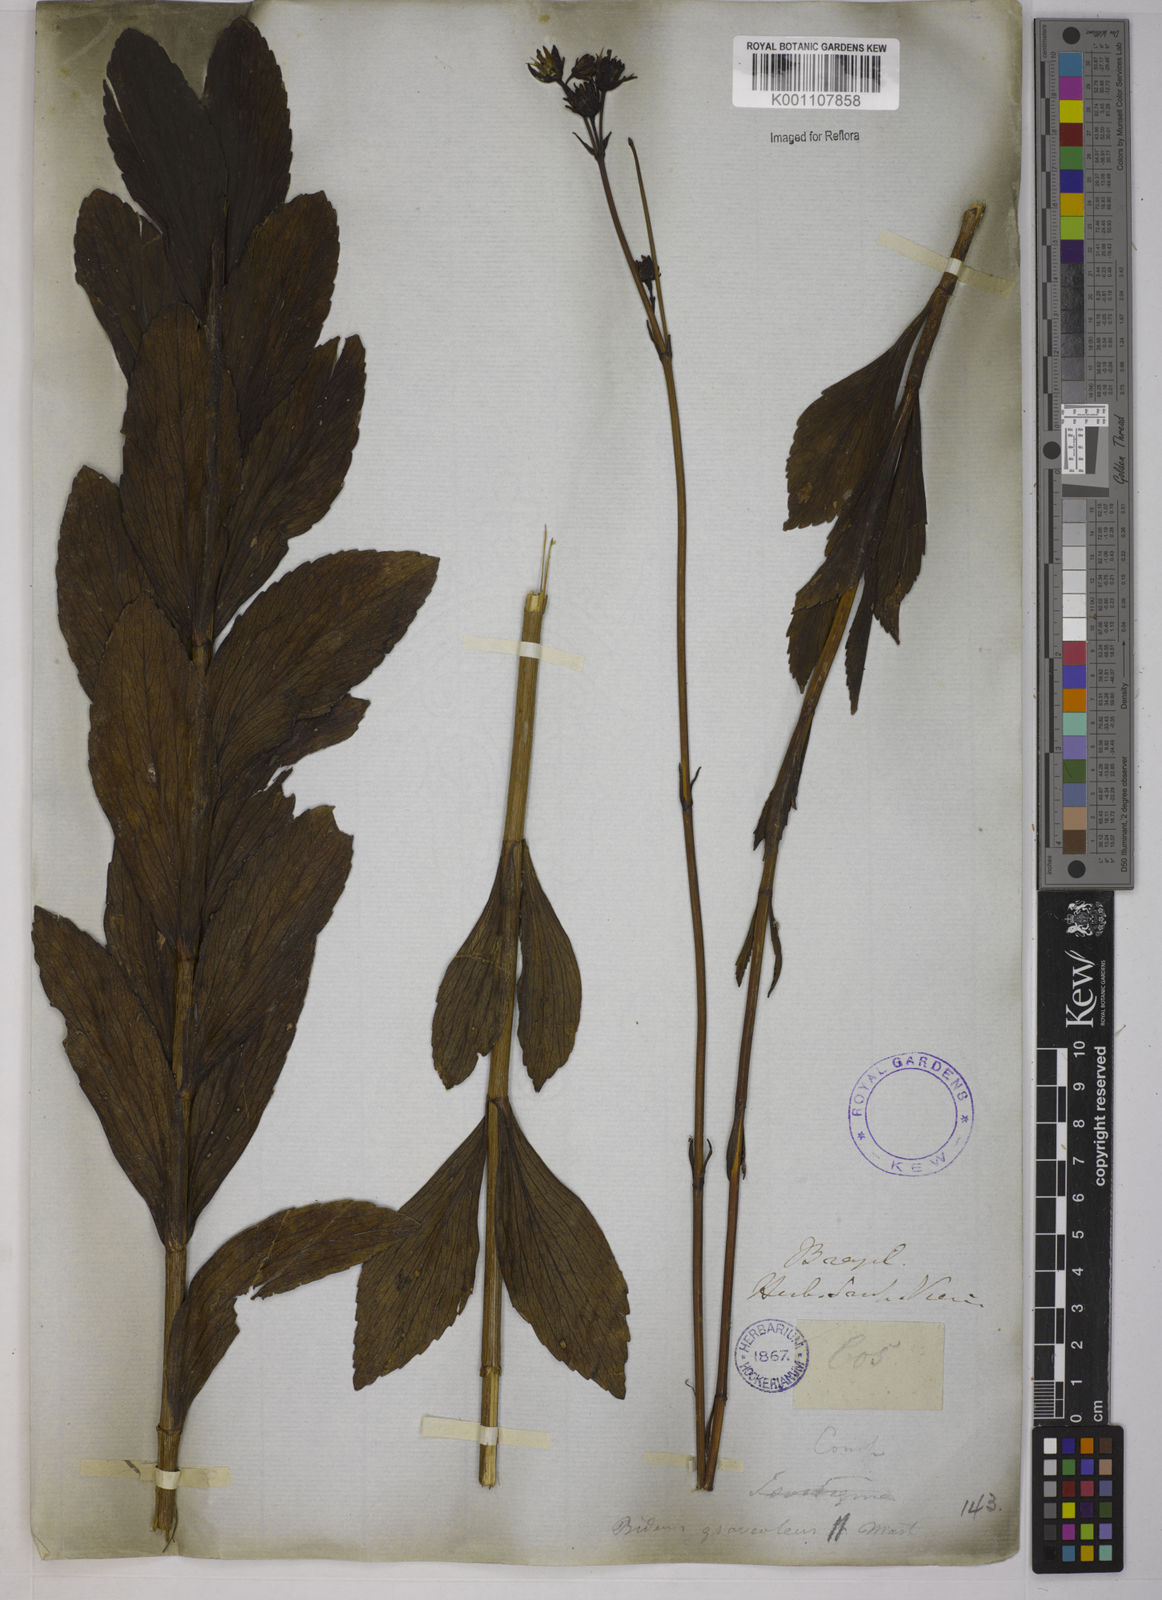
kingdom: Plantae
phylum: Tracheophyta
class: Magnoliopsida
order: Asterales
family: Asteraceae
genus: Bidens
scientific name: Bidens
